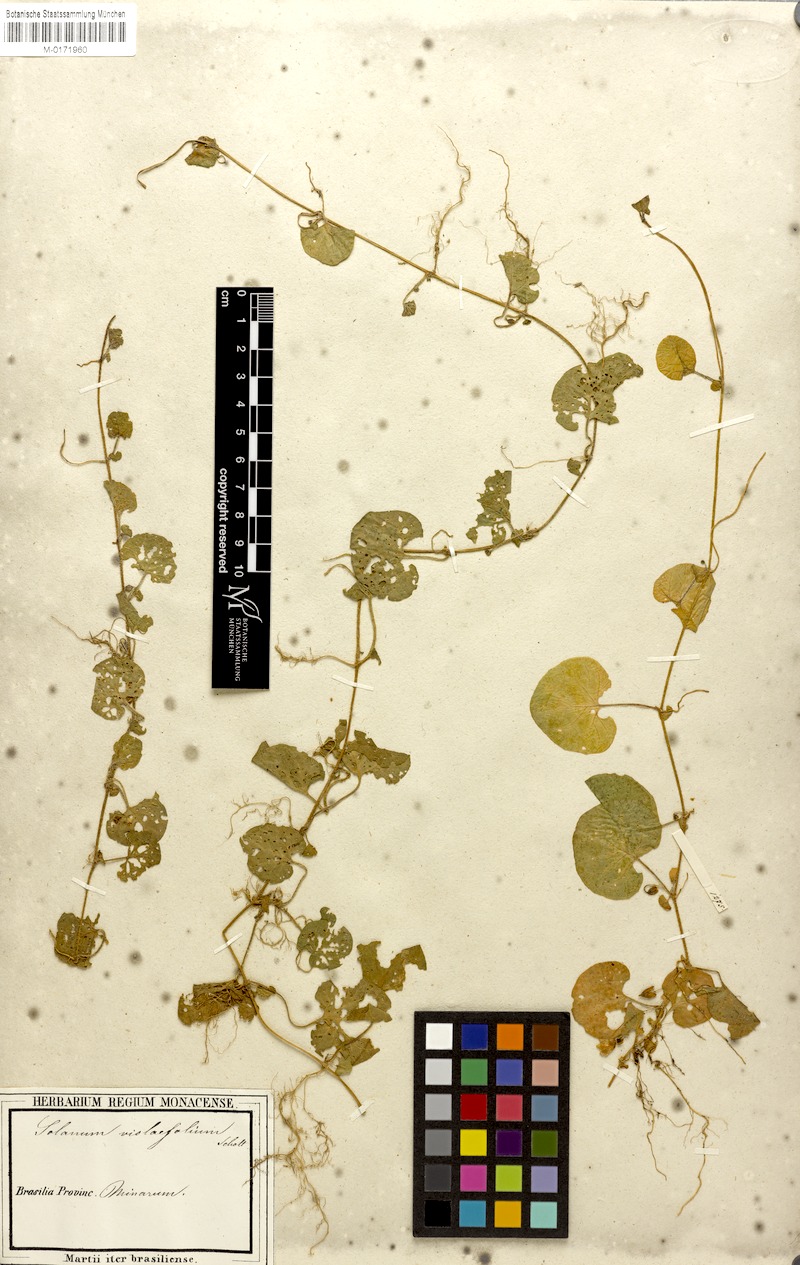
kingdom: Plantae
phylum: Tracheophyta
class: Magnoliopsida
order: Solanales
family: Solanaceae
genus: Lycianthes
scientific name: Lycianthes repens
